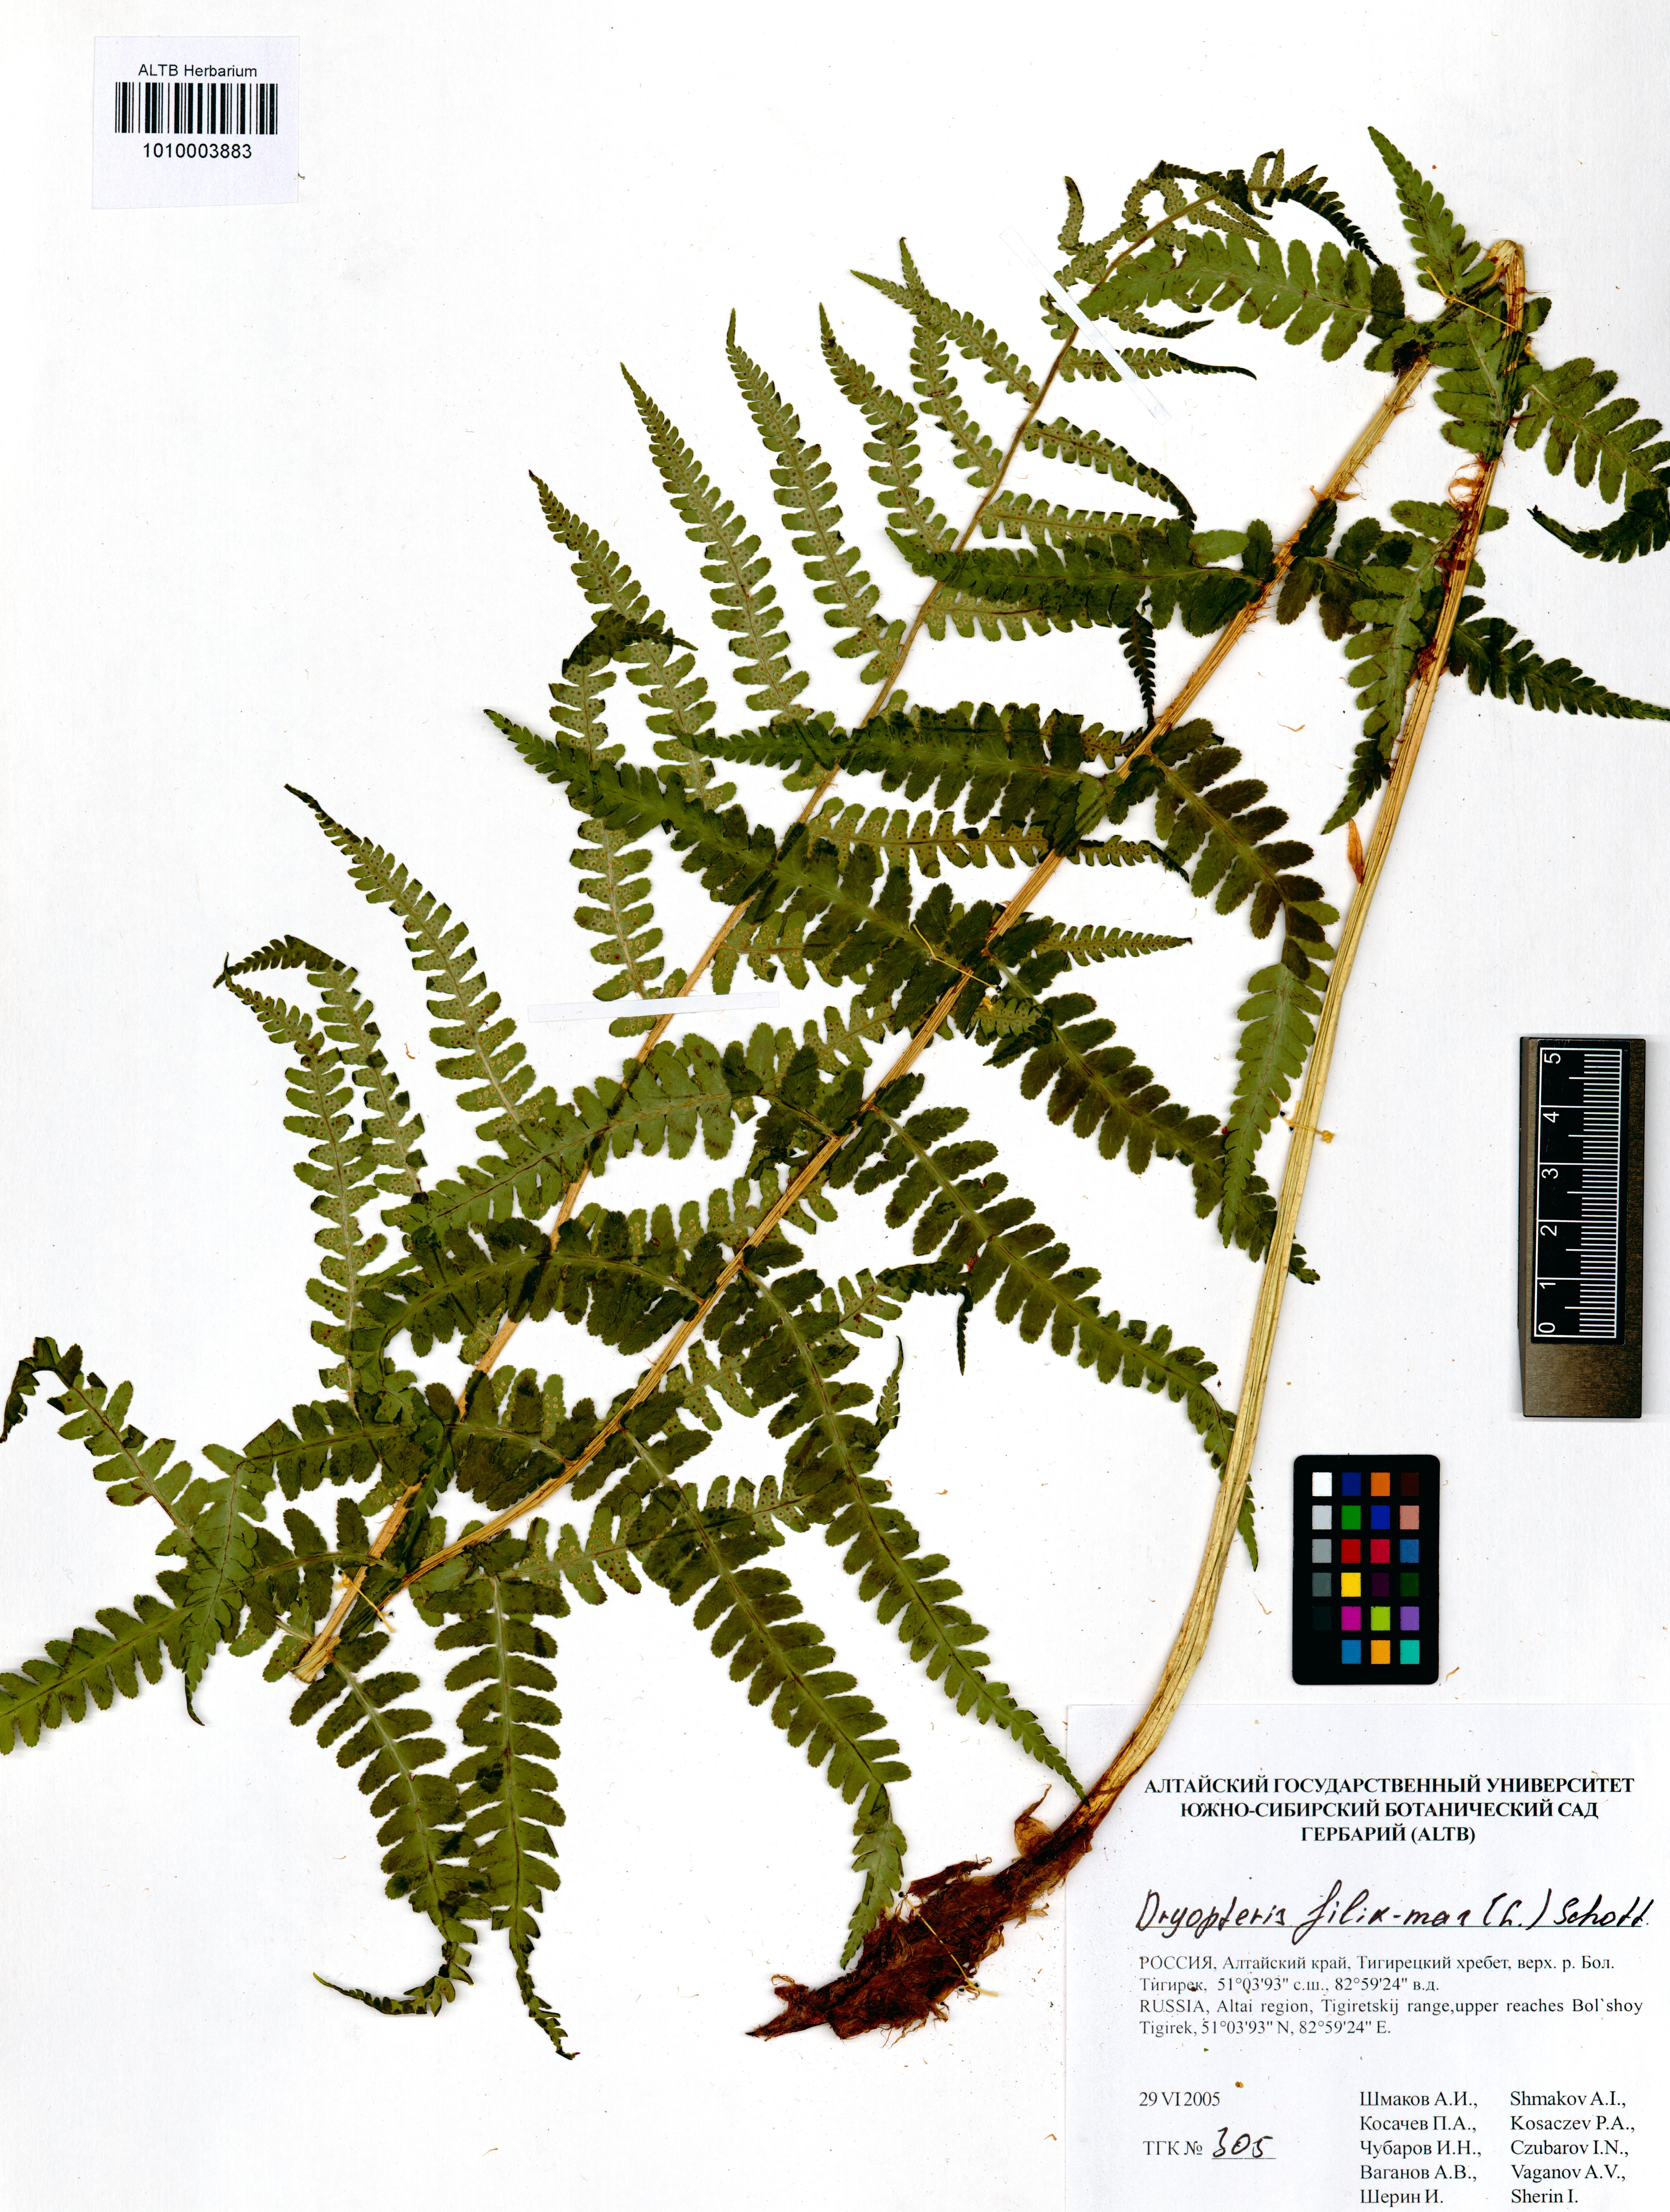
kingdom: Plantae
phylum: Tracheophyta
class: Polypodiopsida
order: Polypodiales
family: Dryopteridaceae
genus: Dryopteris
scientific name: Dryopteris filix-mas
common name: Male fern
